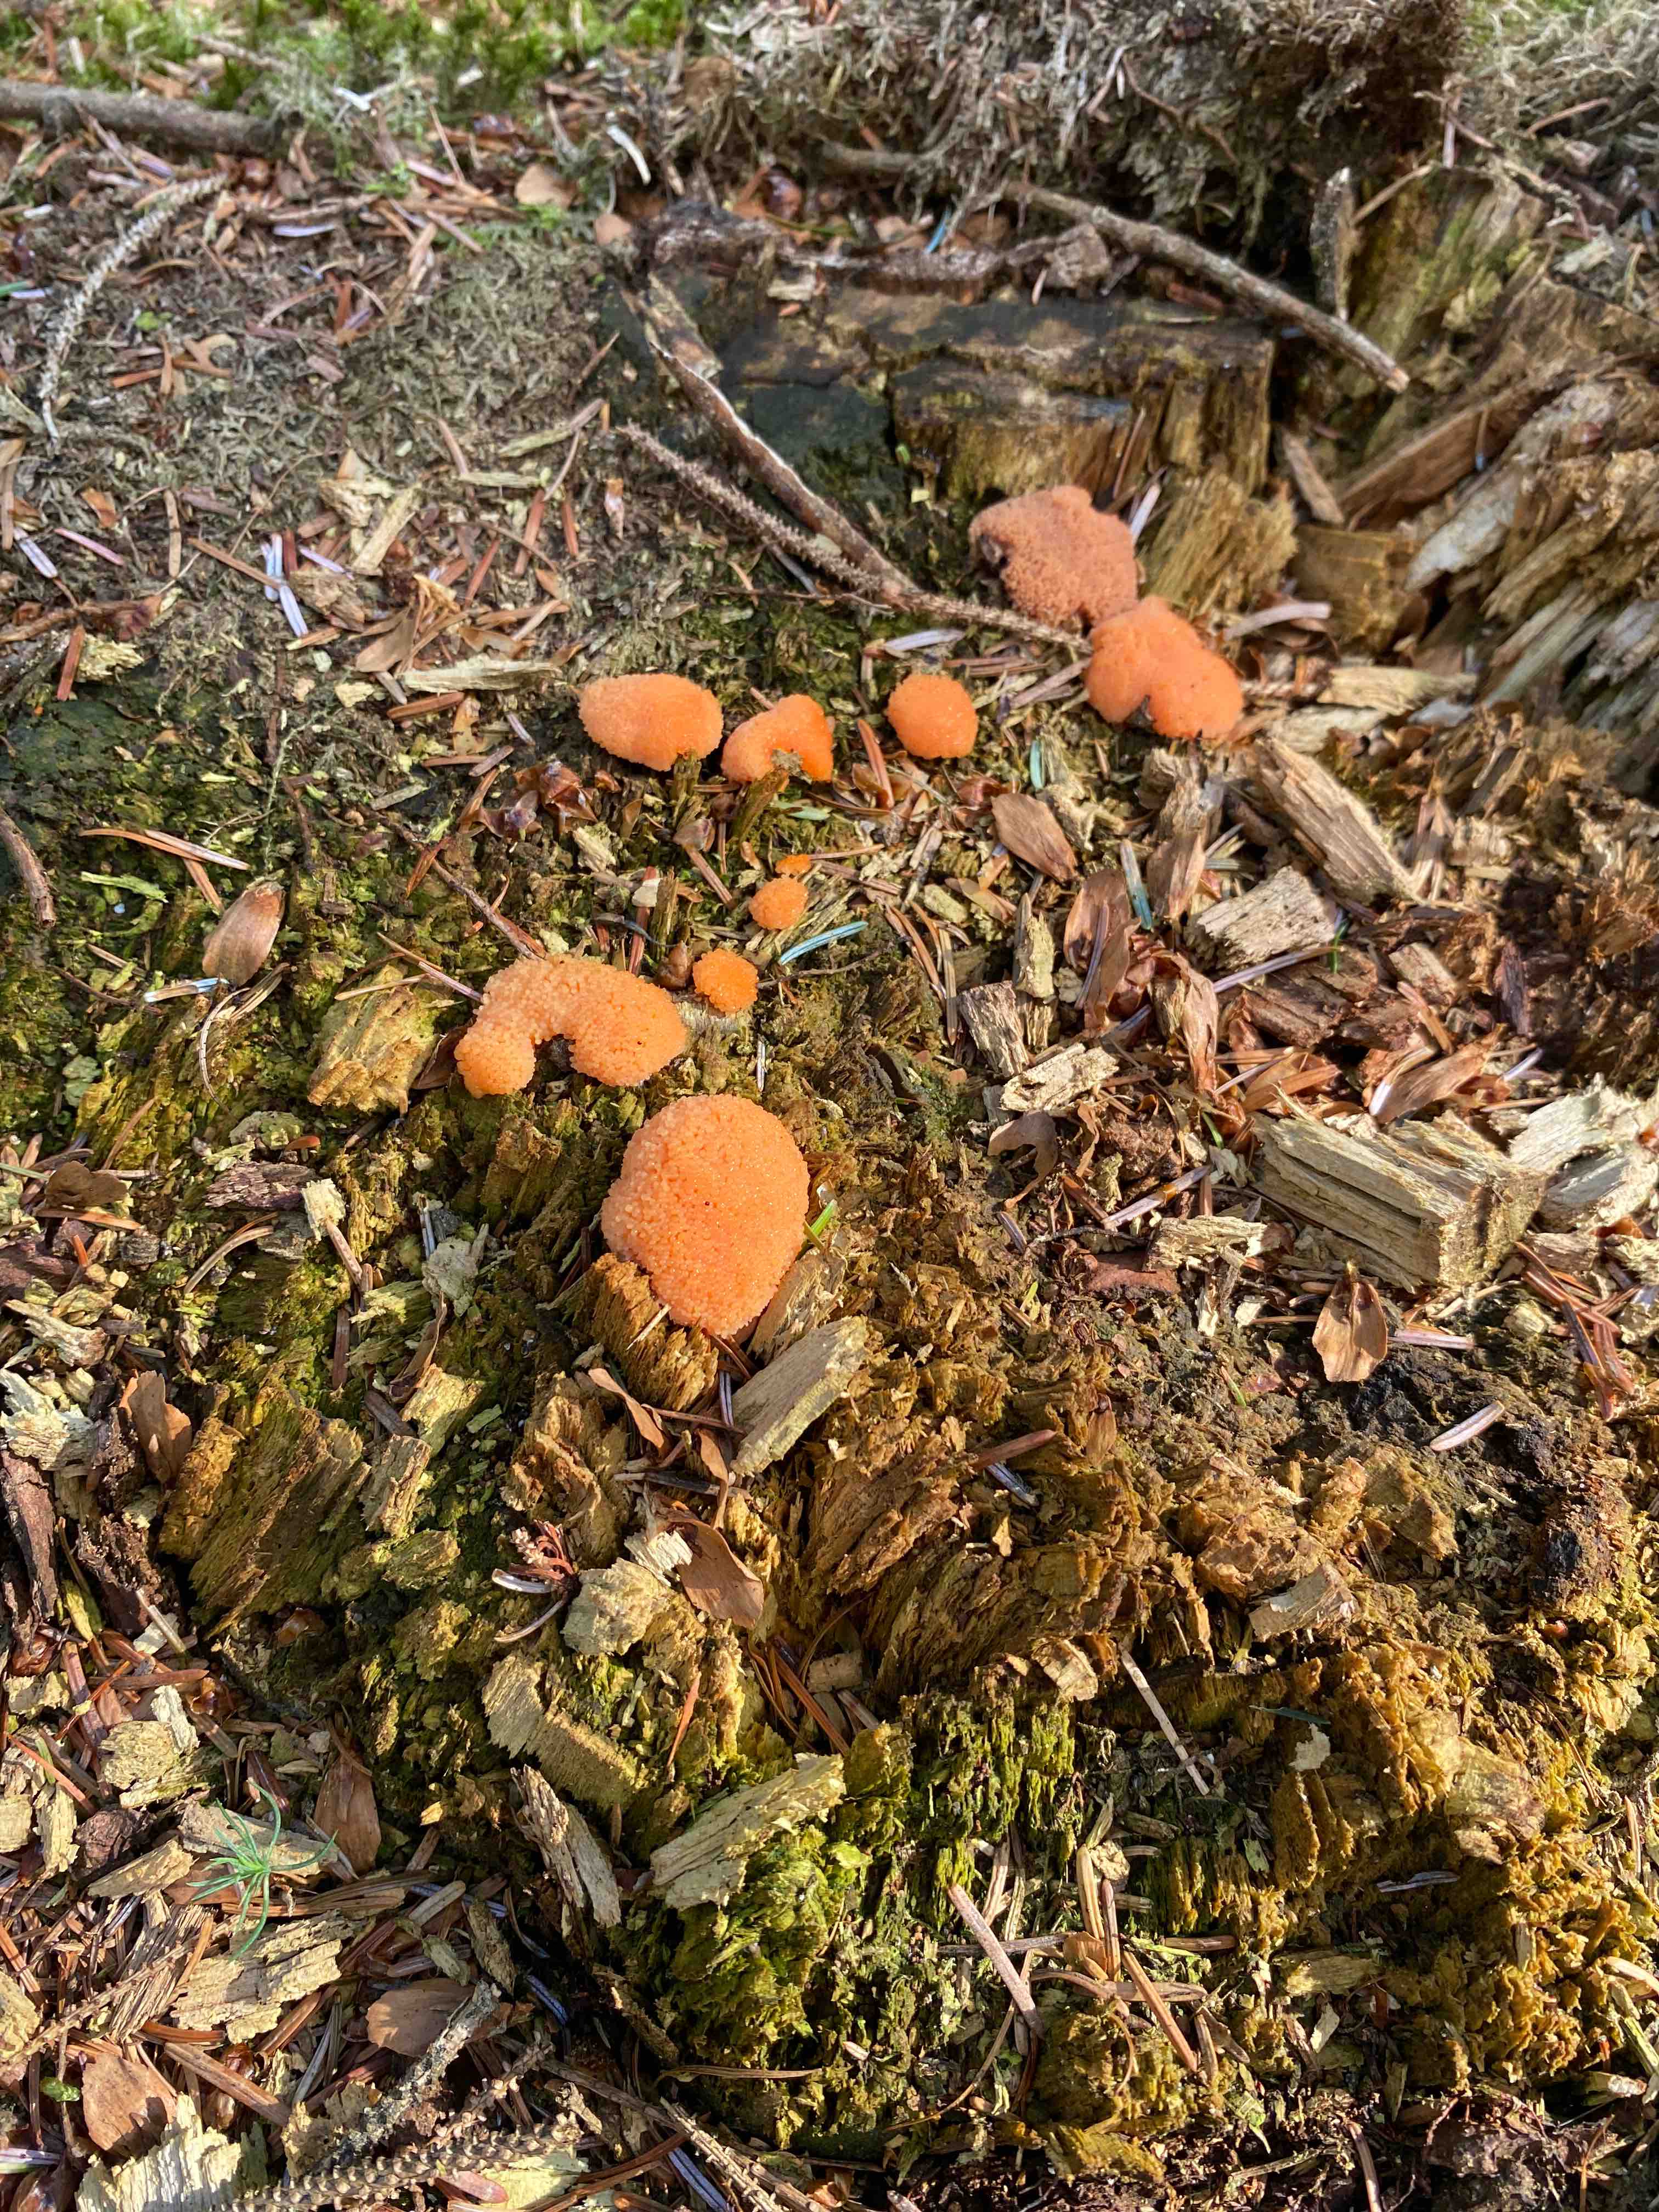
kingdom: Protozoa
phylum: Mycetozoa
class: Myxomycetes
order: Cribrariales
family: Tubiferaceae
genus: Tubifera
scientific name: Tubifera ferruginosa
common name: kanel-støvrør
